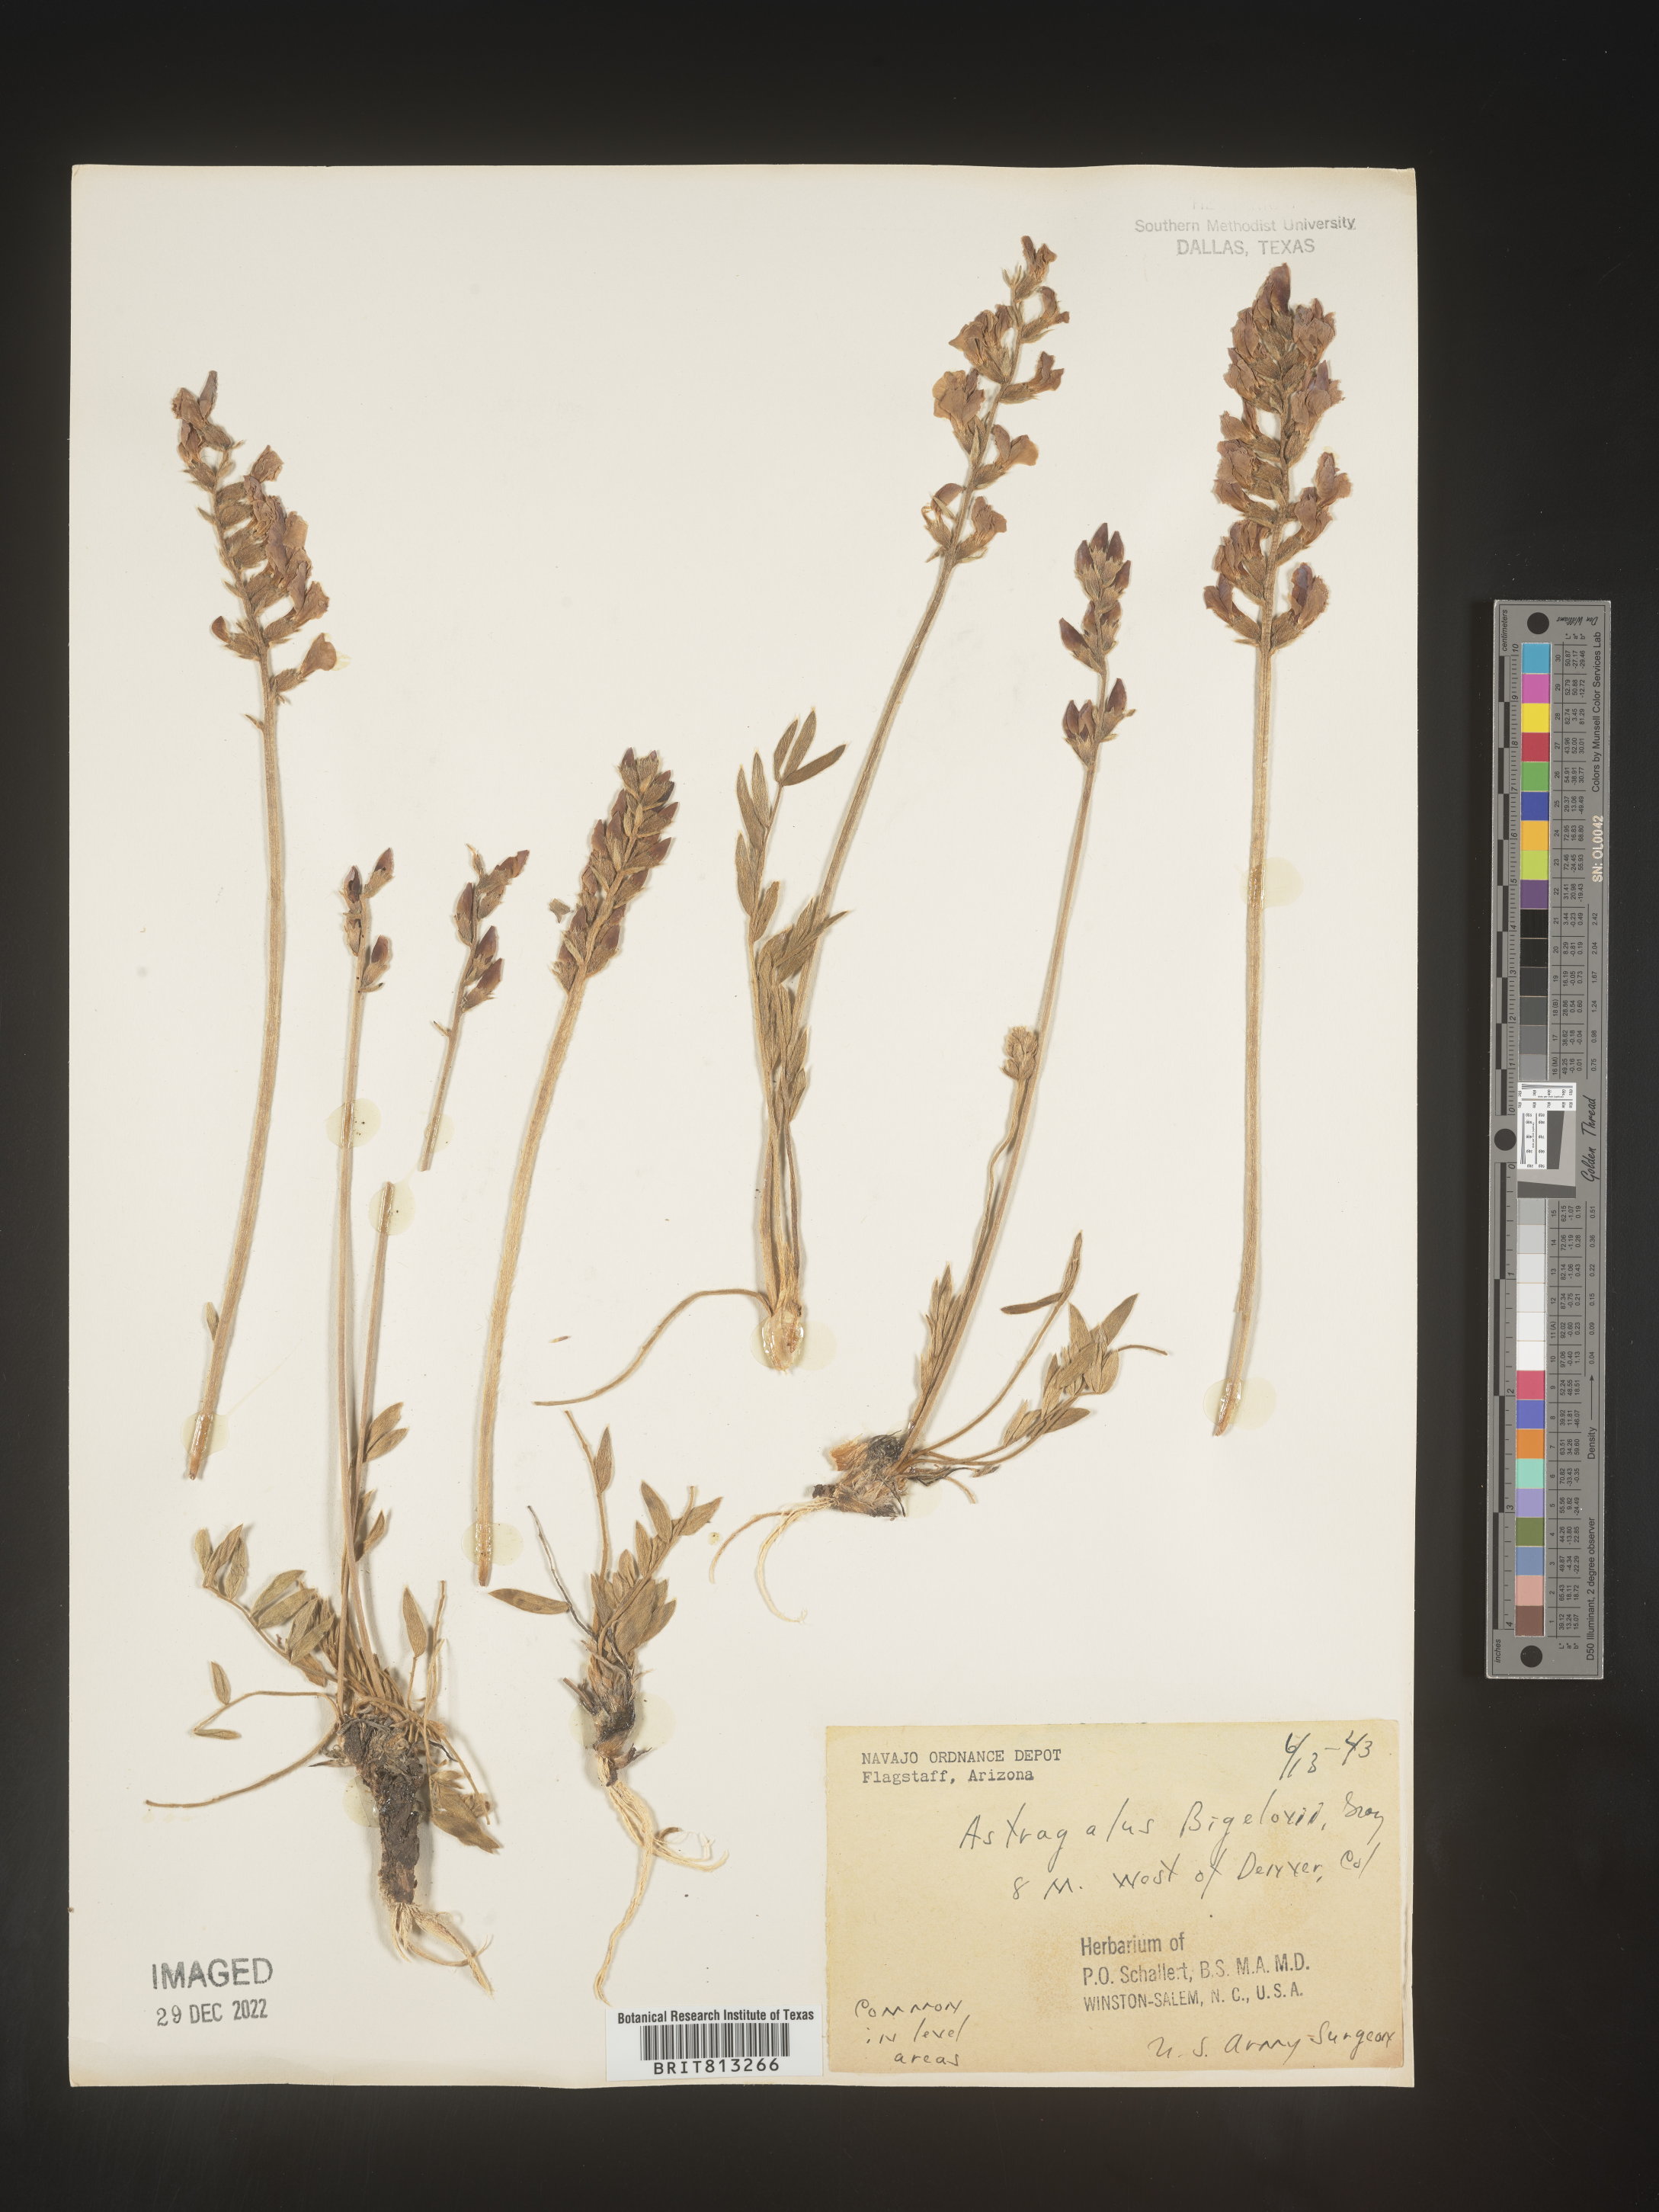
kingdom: Plantae
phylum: Tracheophyta
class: Magnoliopsida
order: Fabales
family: Fabaceae
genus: Astragalus
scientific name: Astragalus
